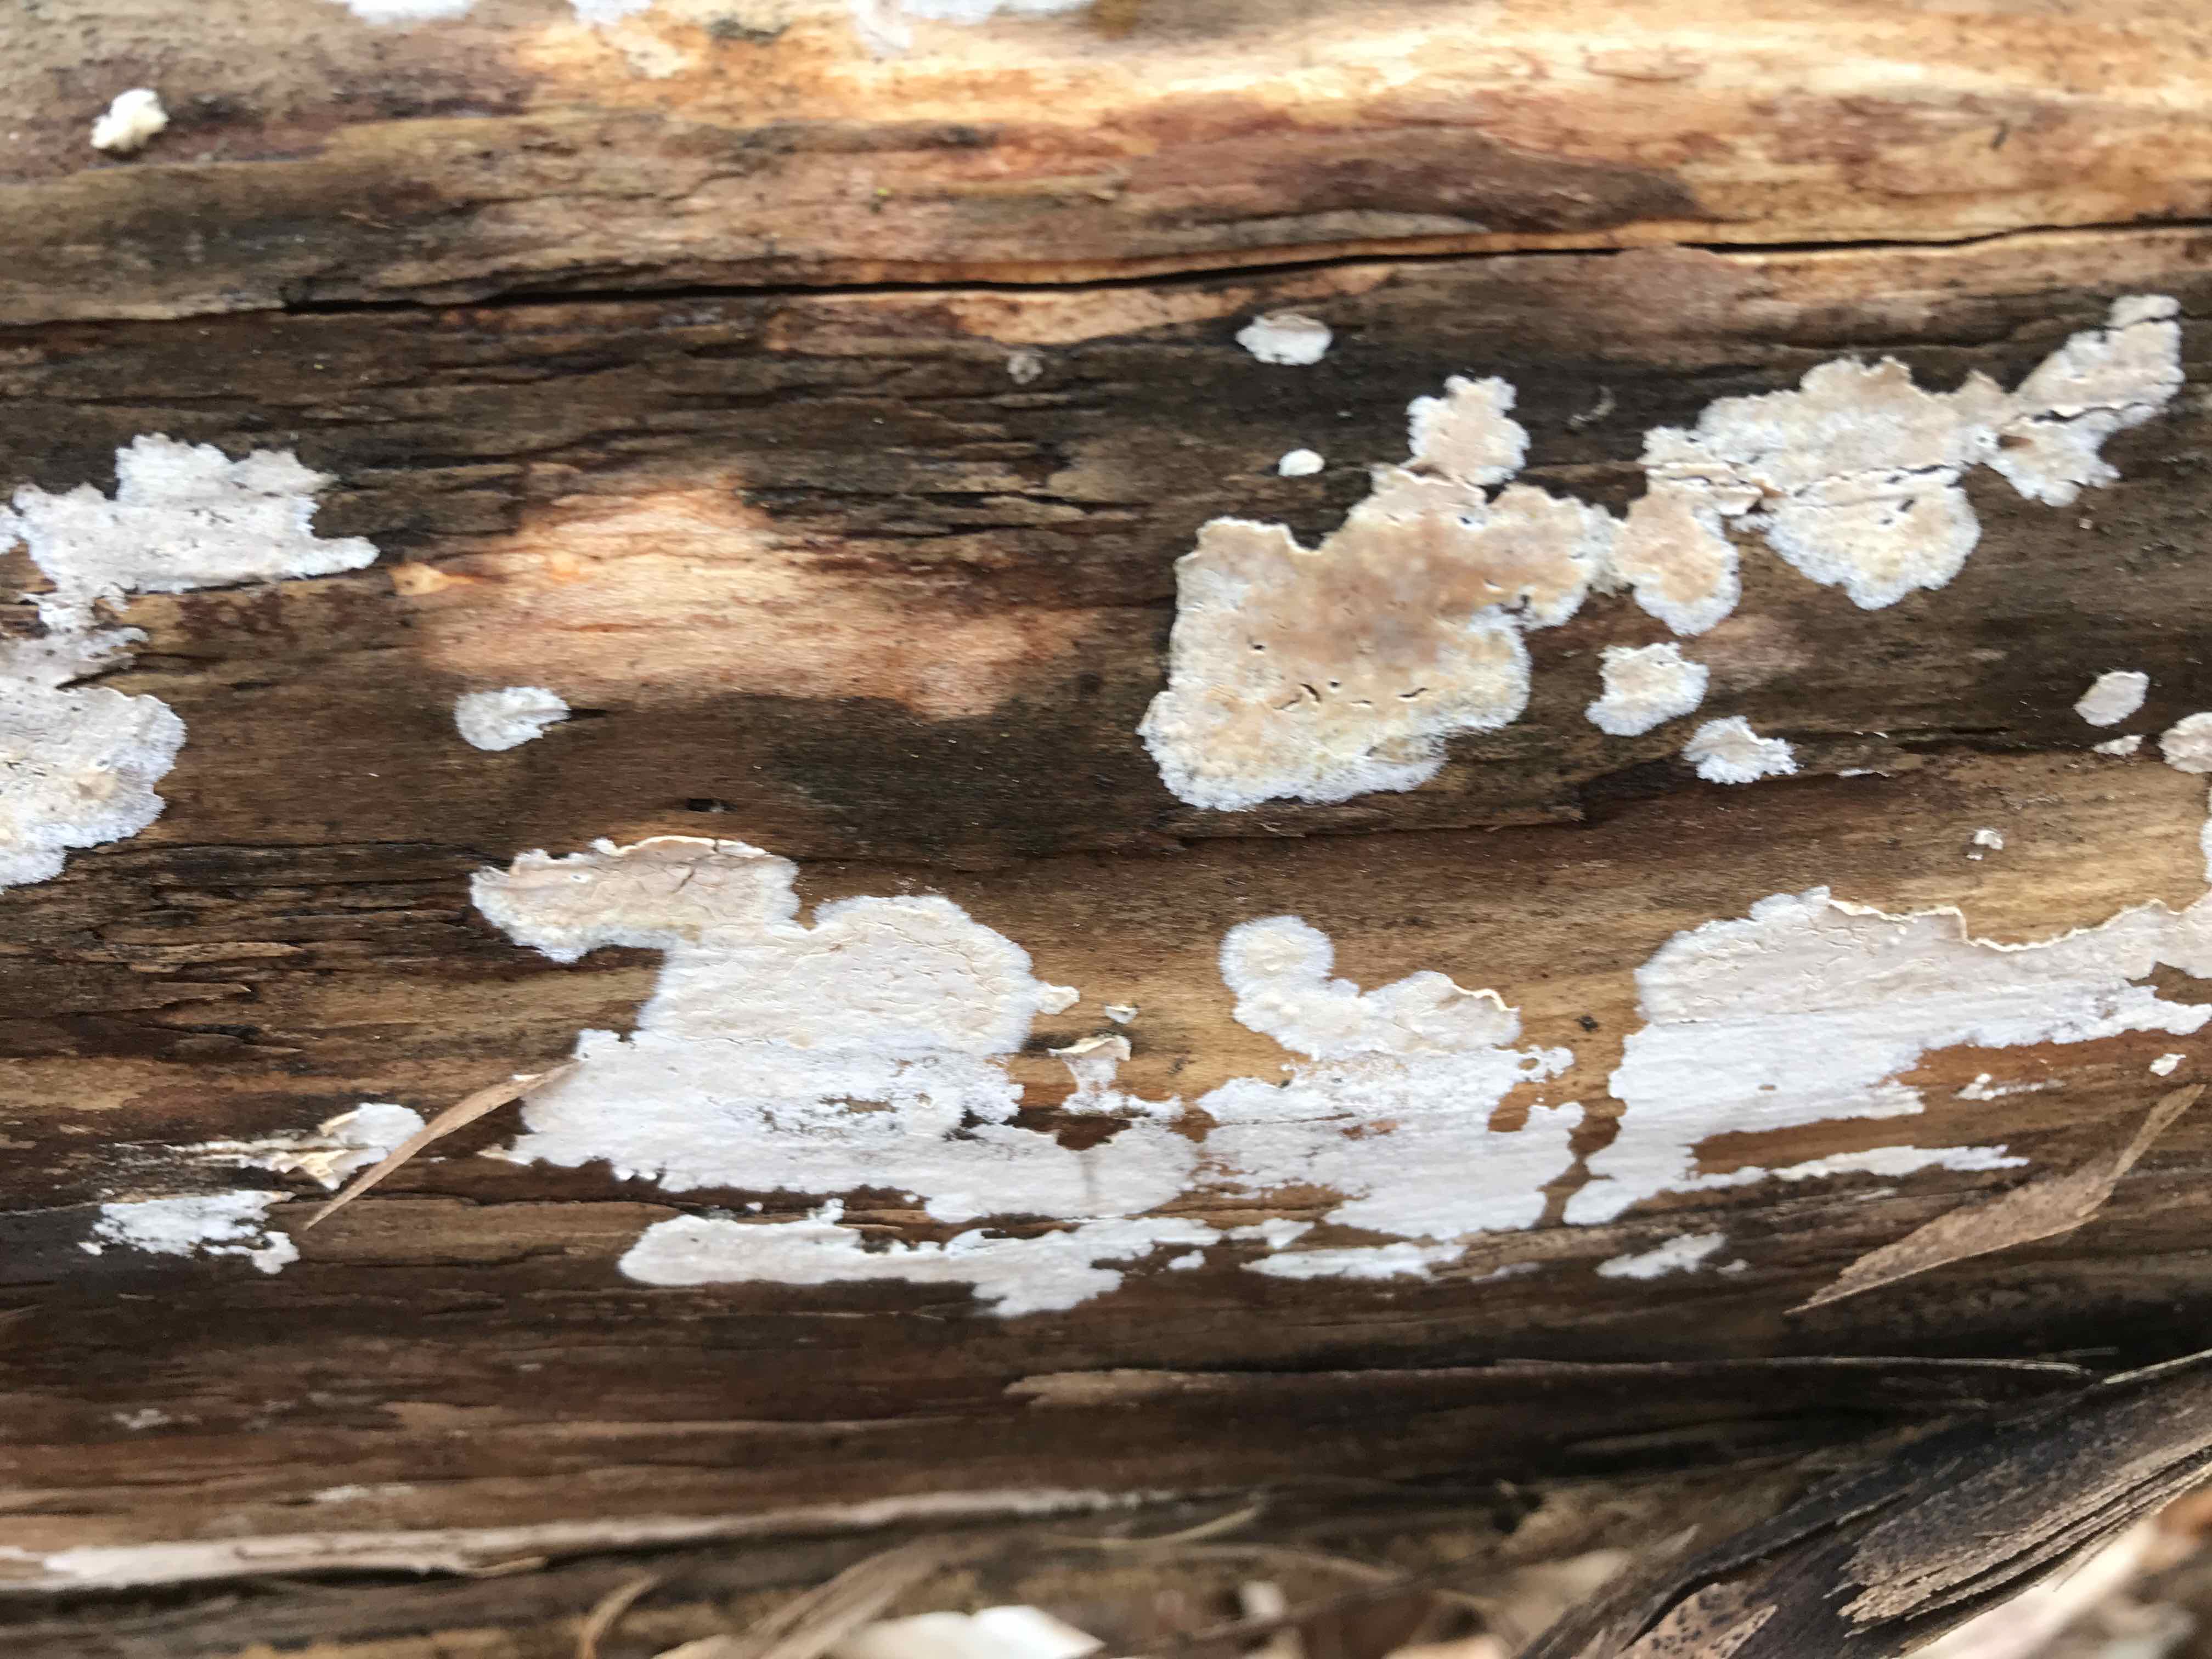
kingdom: Fungi
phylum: Basidiomycota
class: Agaricomycetes
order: Agaricales
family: Physalacriaceae
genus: Cylindrobasidium
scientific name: Cylindrobasidium evolvens
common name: sprækkehinde
